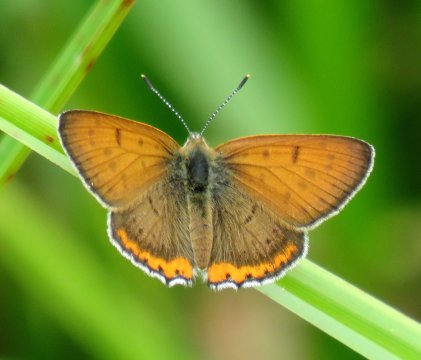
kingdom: Animalia
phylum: Arthropoda
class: Insecta
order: Lepidoptera
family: Sesiidae
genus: Sesia
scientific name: Sesia Lycaena hyllus
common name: Bronze Copper
